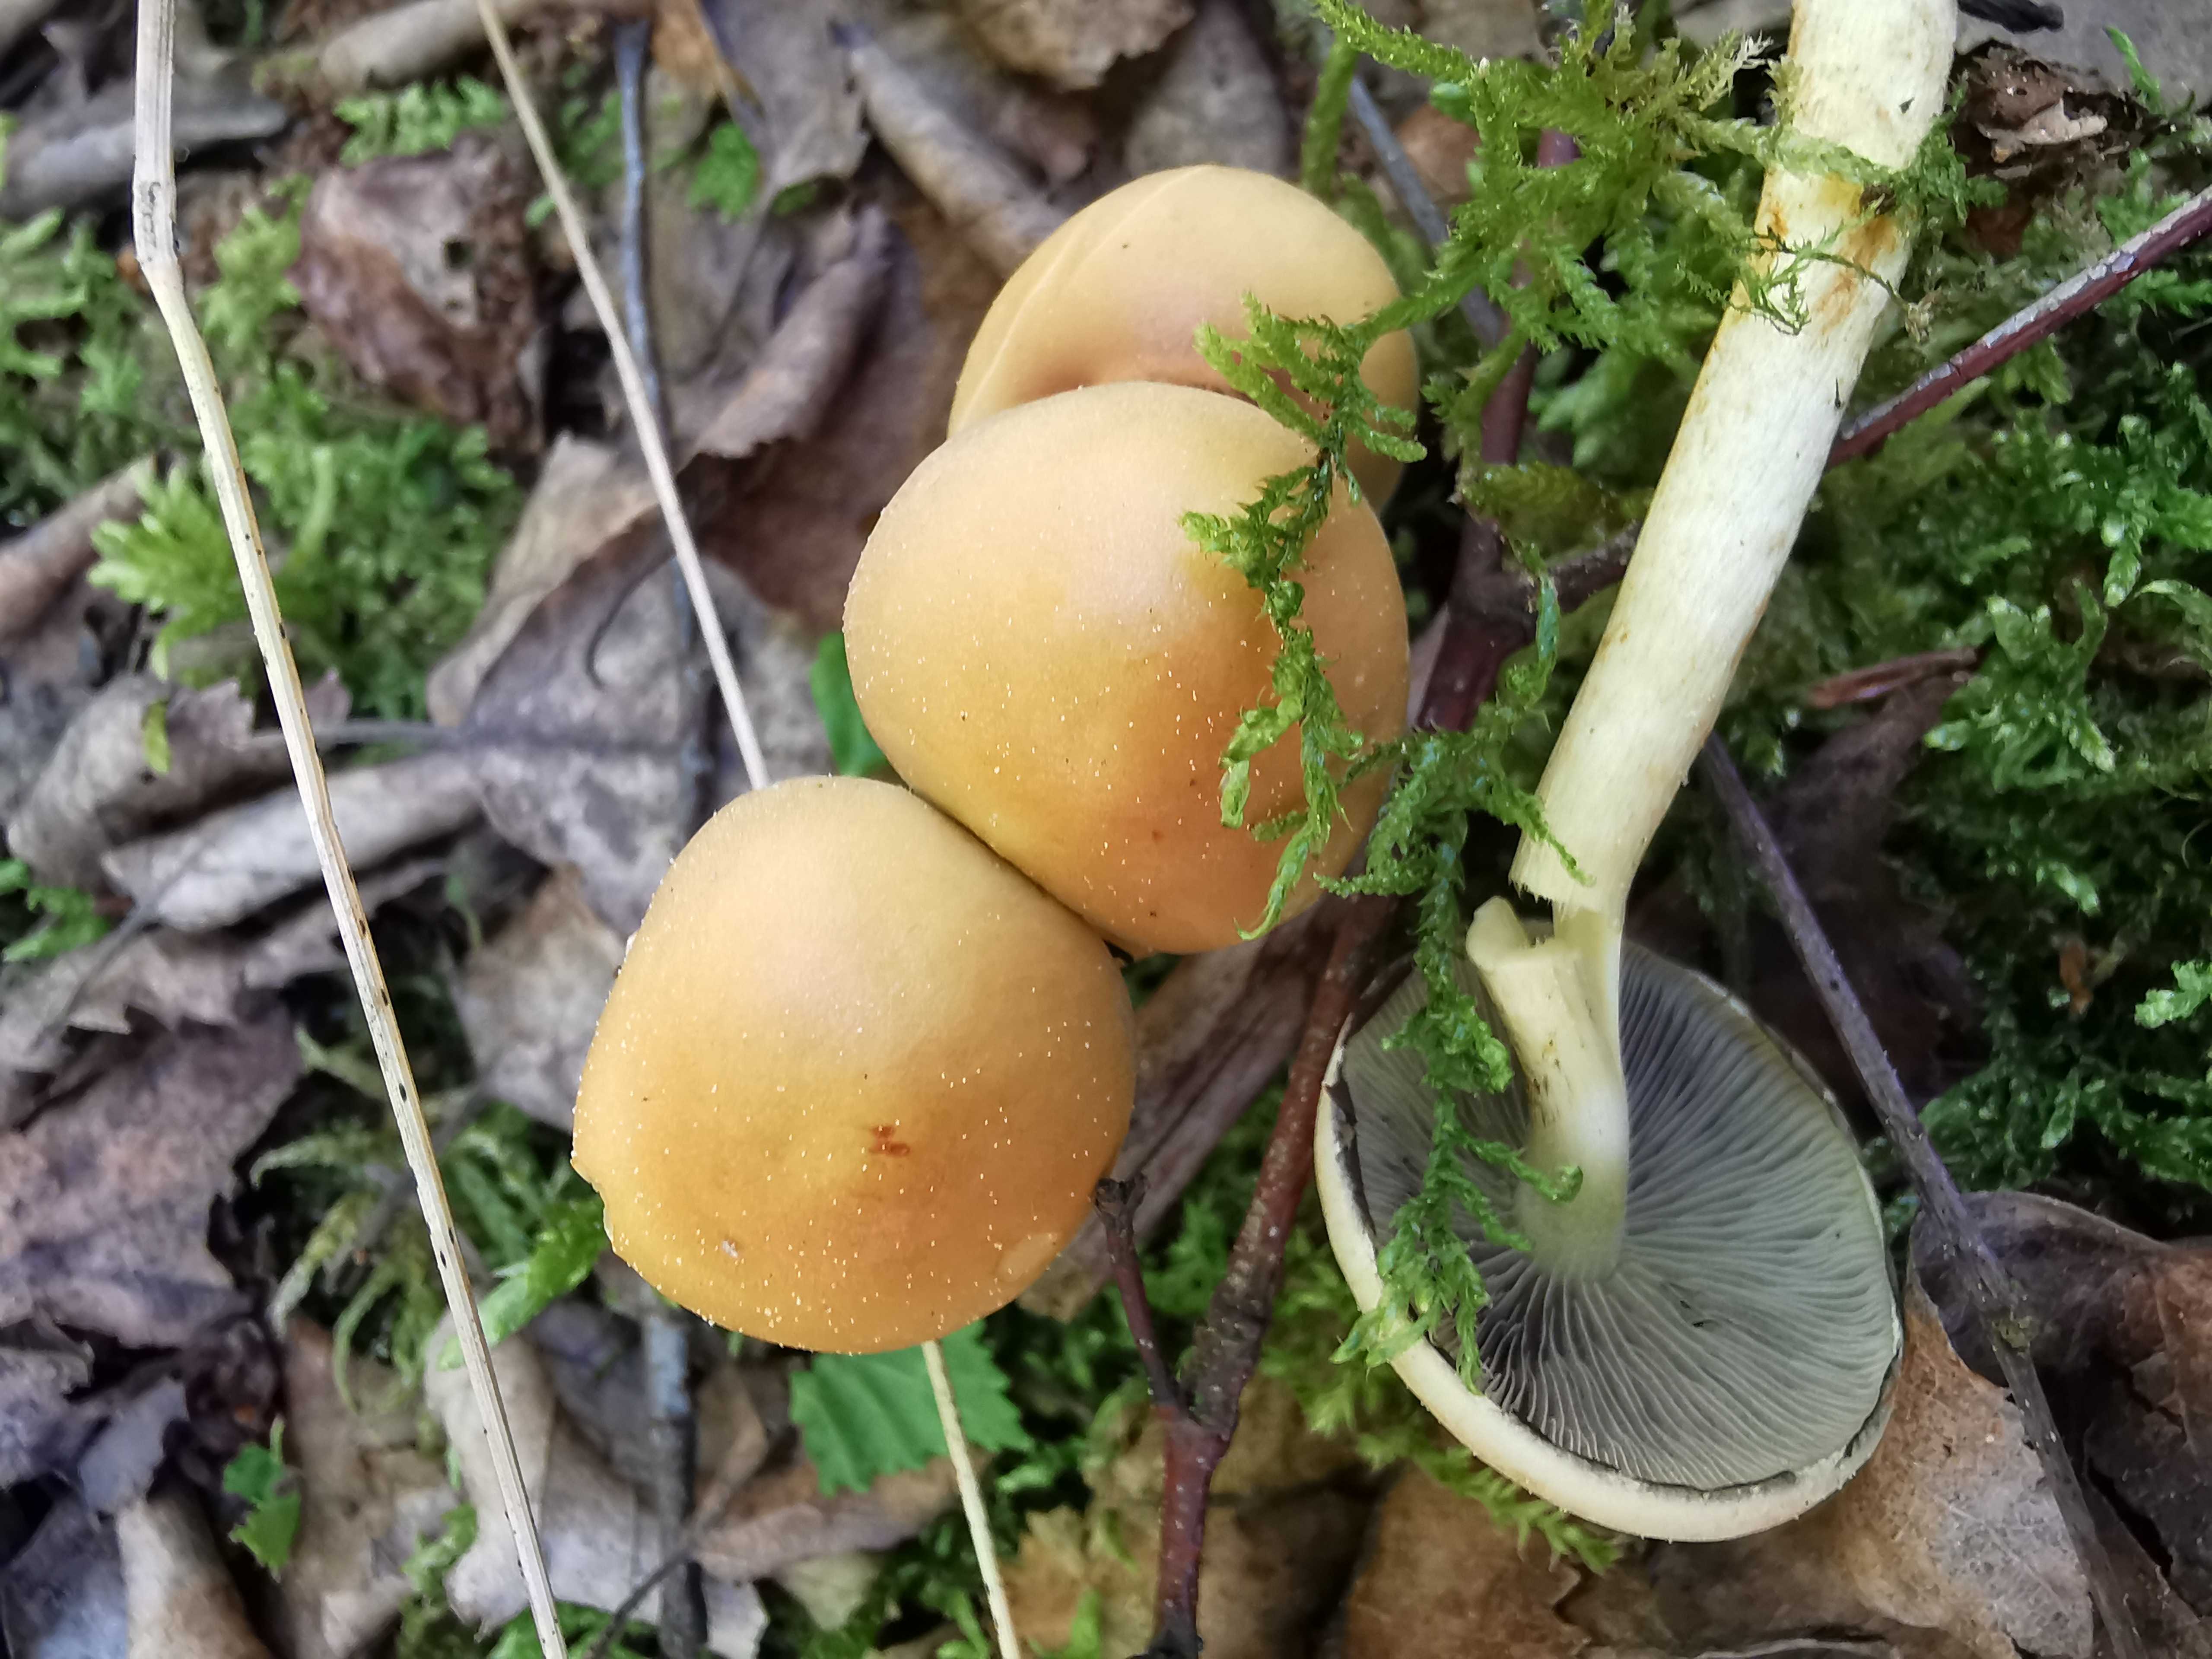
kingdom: Fungi
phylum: Basidiomycota
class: Agaricomycetes
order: Agaricales
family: Strophariaceae
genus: Hypholoma
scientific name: Hypholoma fasciculare
